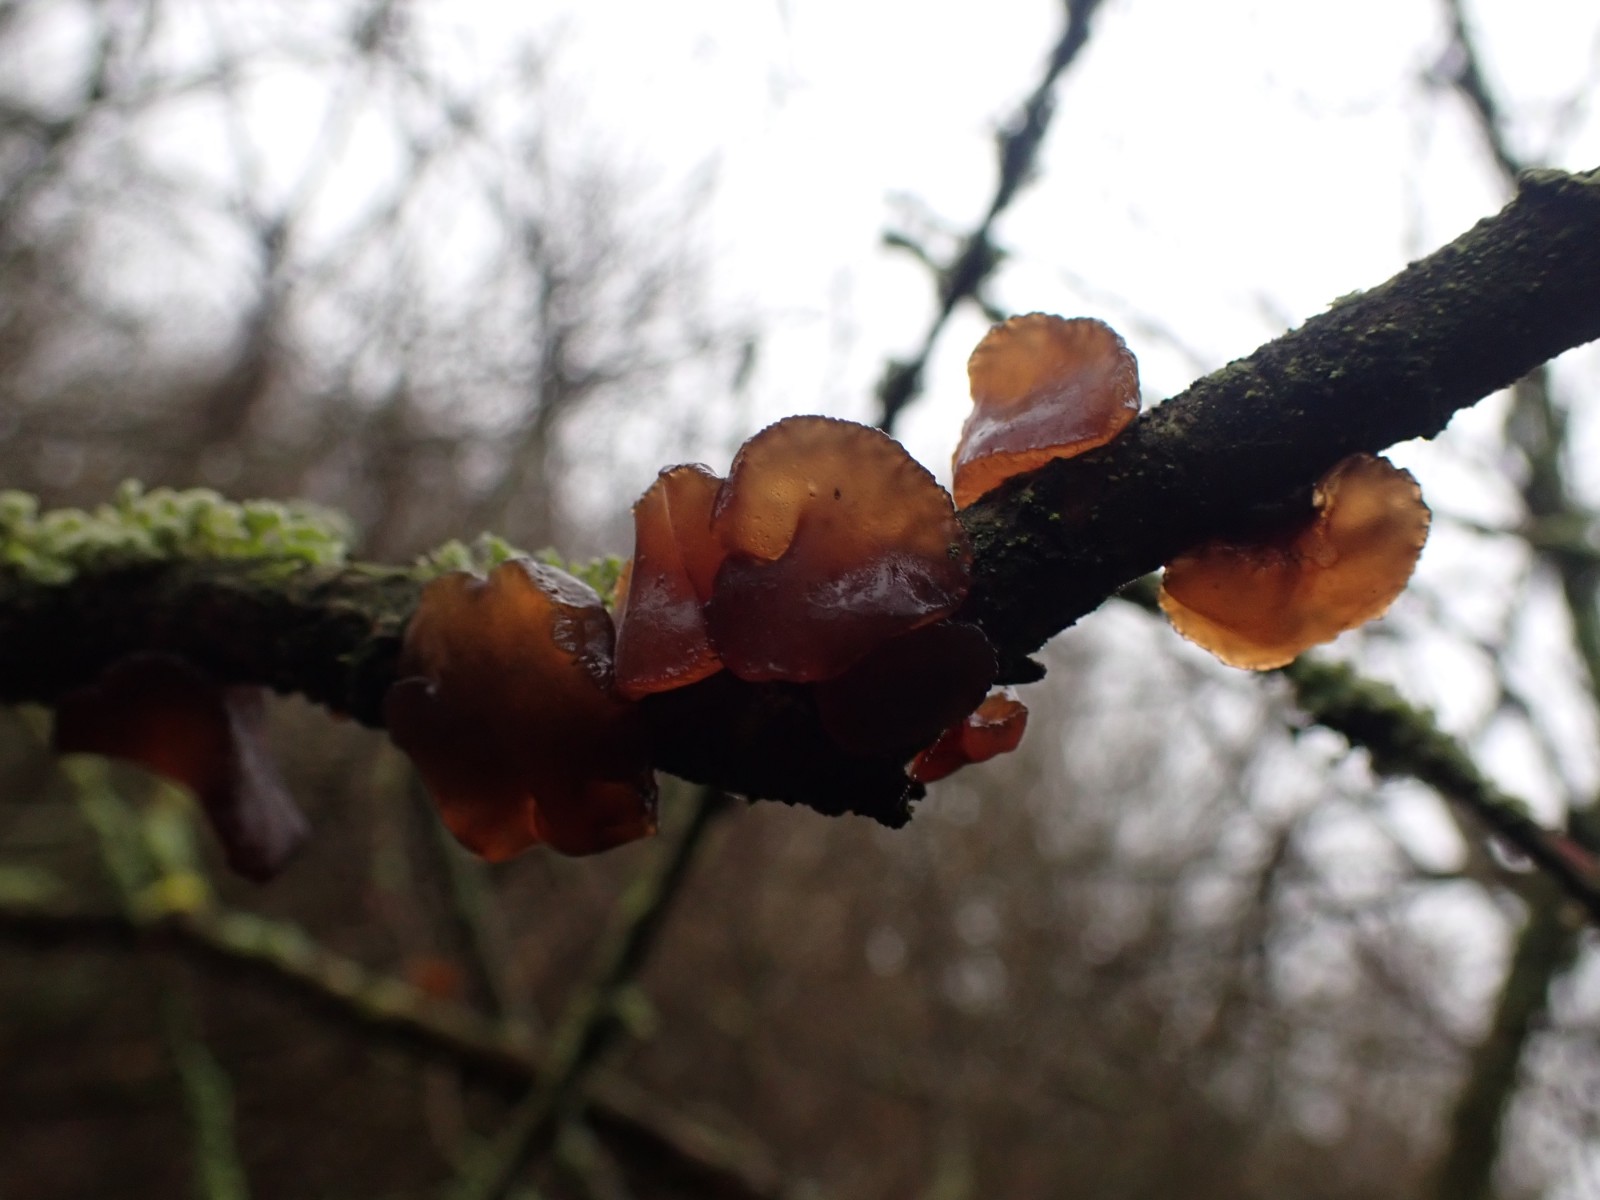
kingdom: Fungi
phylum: Basidiomycota
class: Agaricomycetes
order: Auriculariales
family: Auriculariaceae
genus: Exidia
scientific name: Exidia recisa
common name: pile-bævretop
